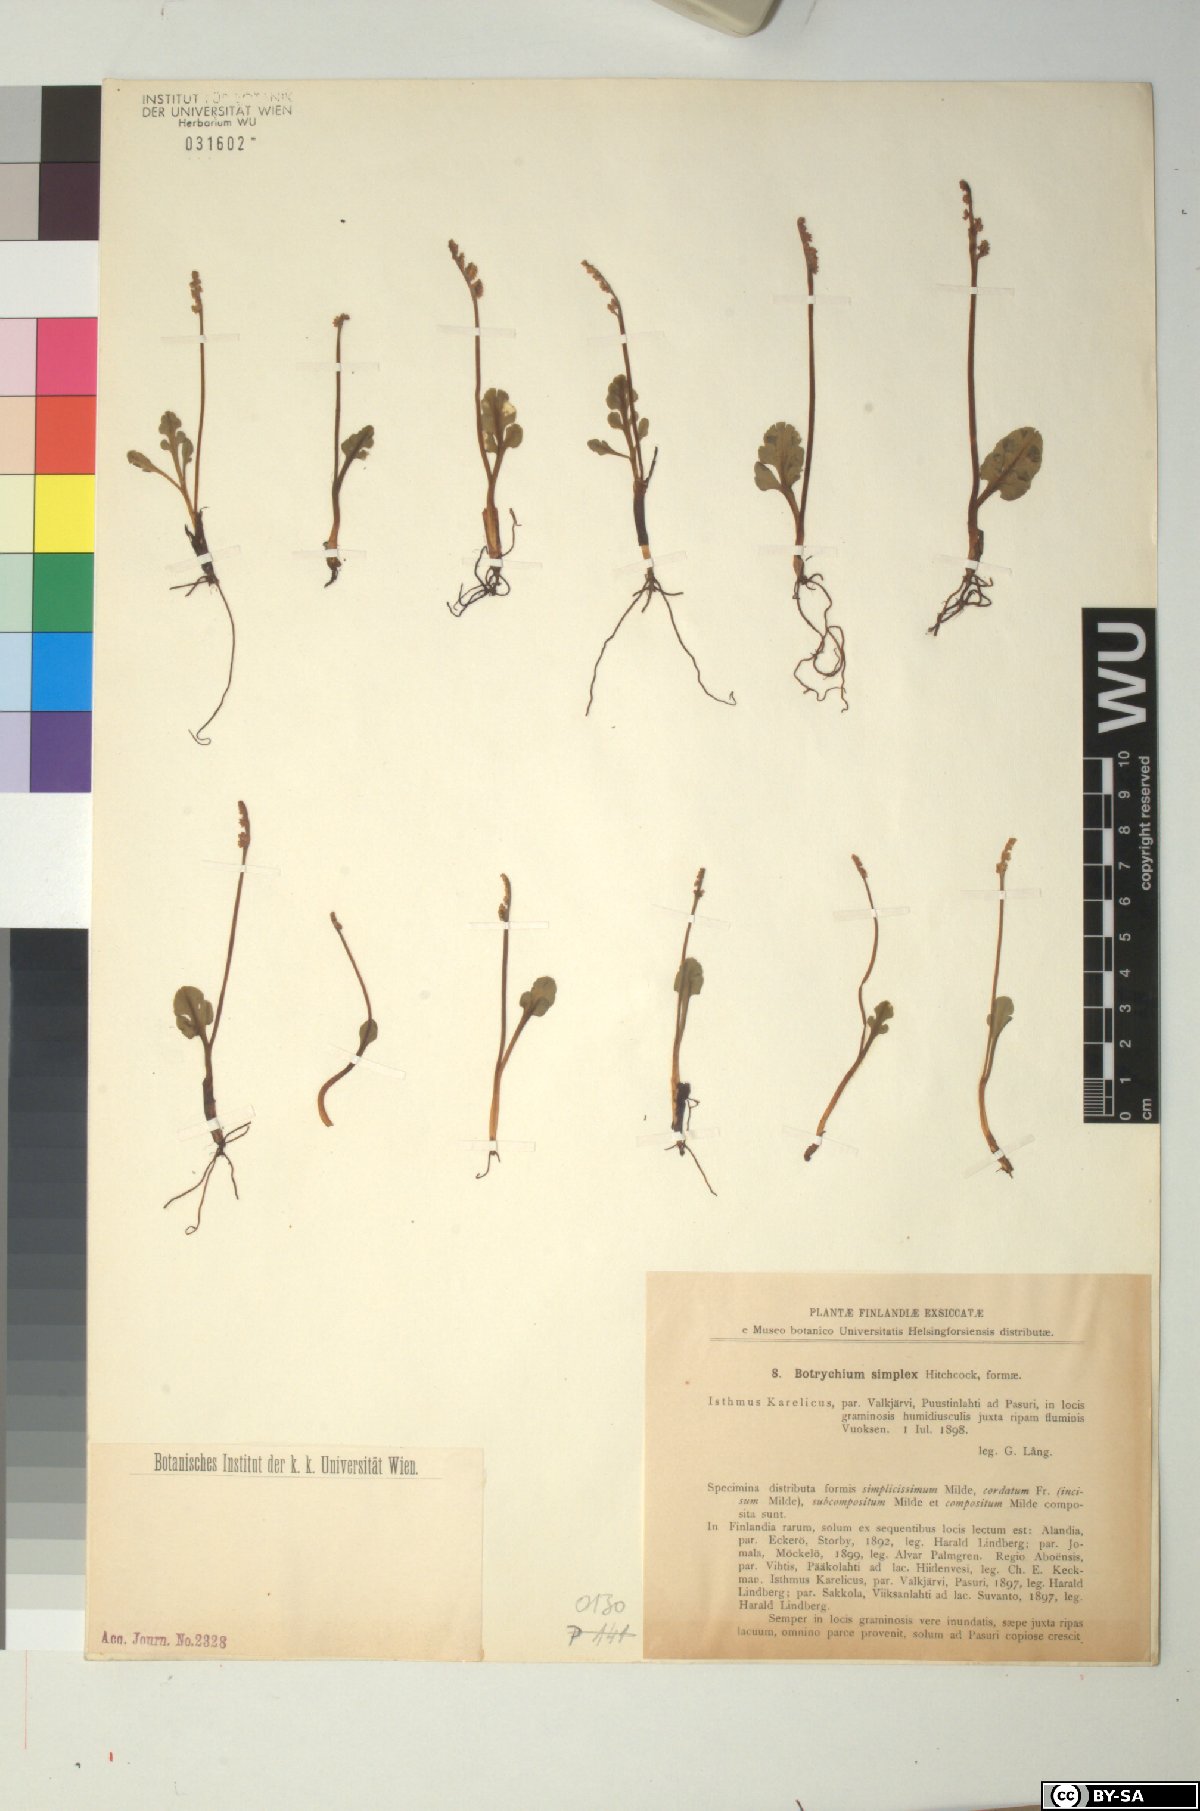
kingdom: Plantae
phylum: Tracheophyta
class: Polypodiopsida
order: Ophioglossales
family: Ophioglossaceae
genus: Botrychium
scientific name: Botrychium simplex
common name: Least moonwort
